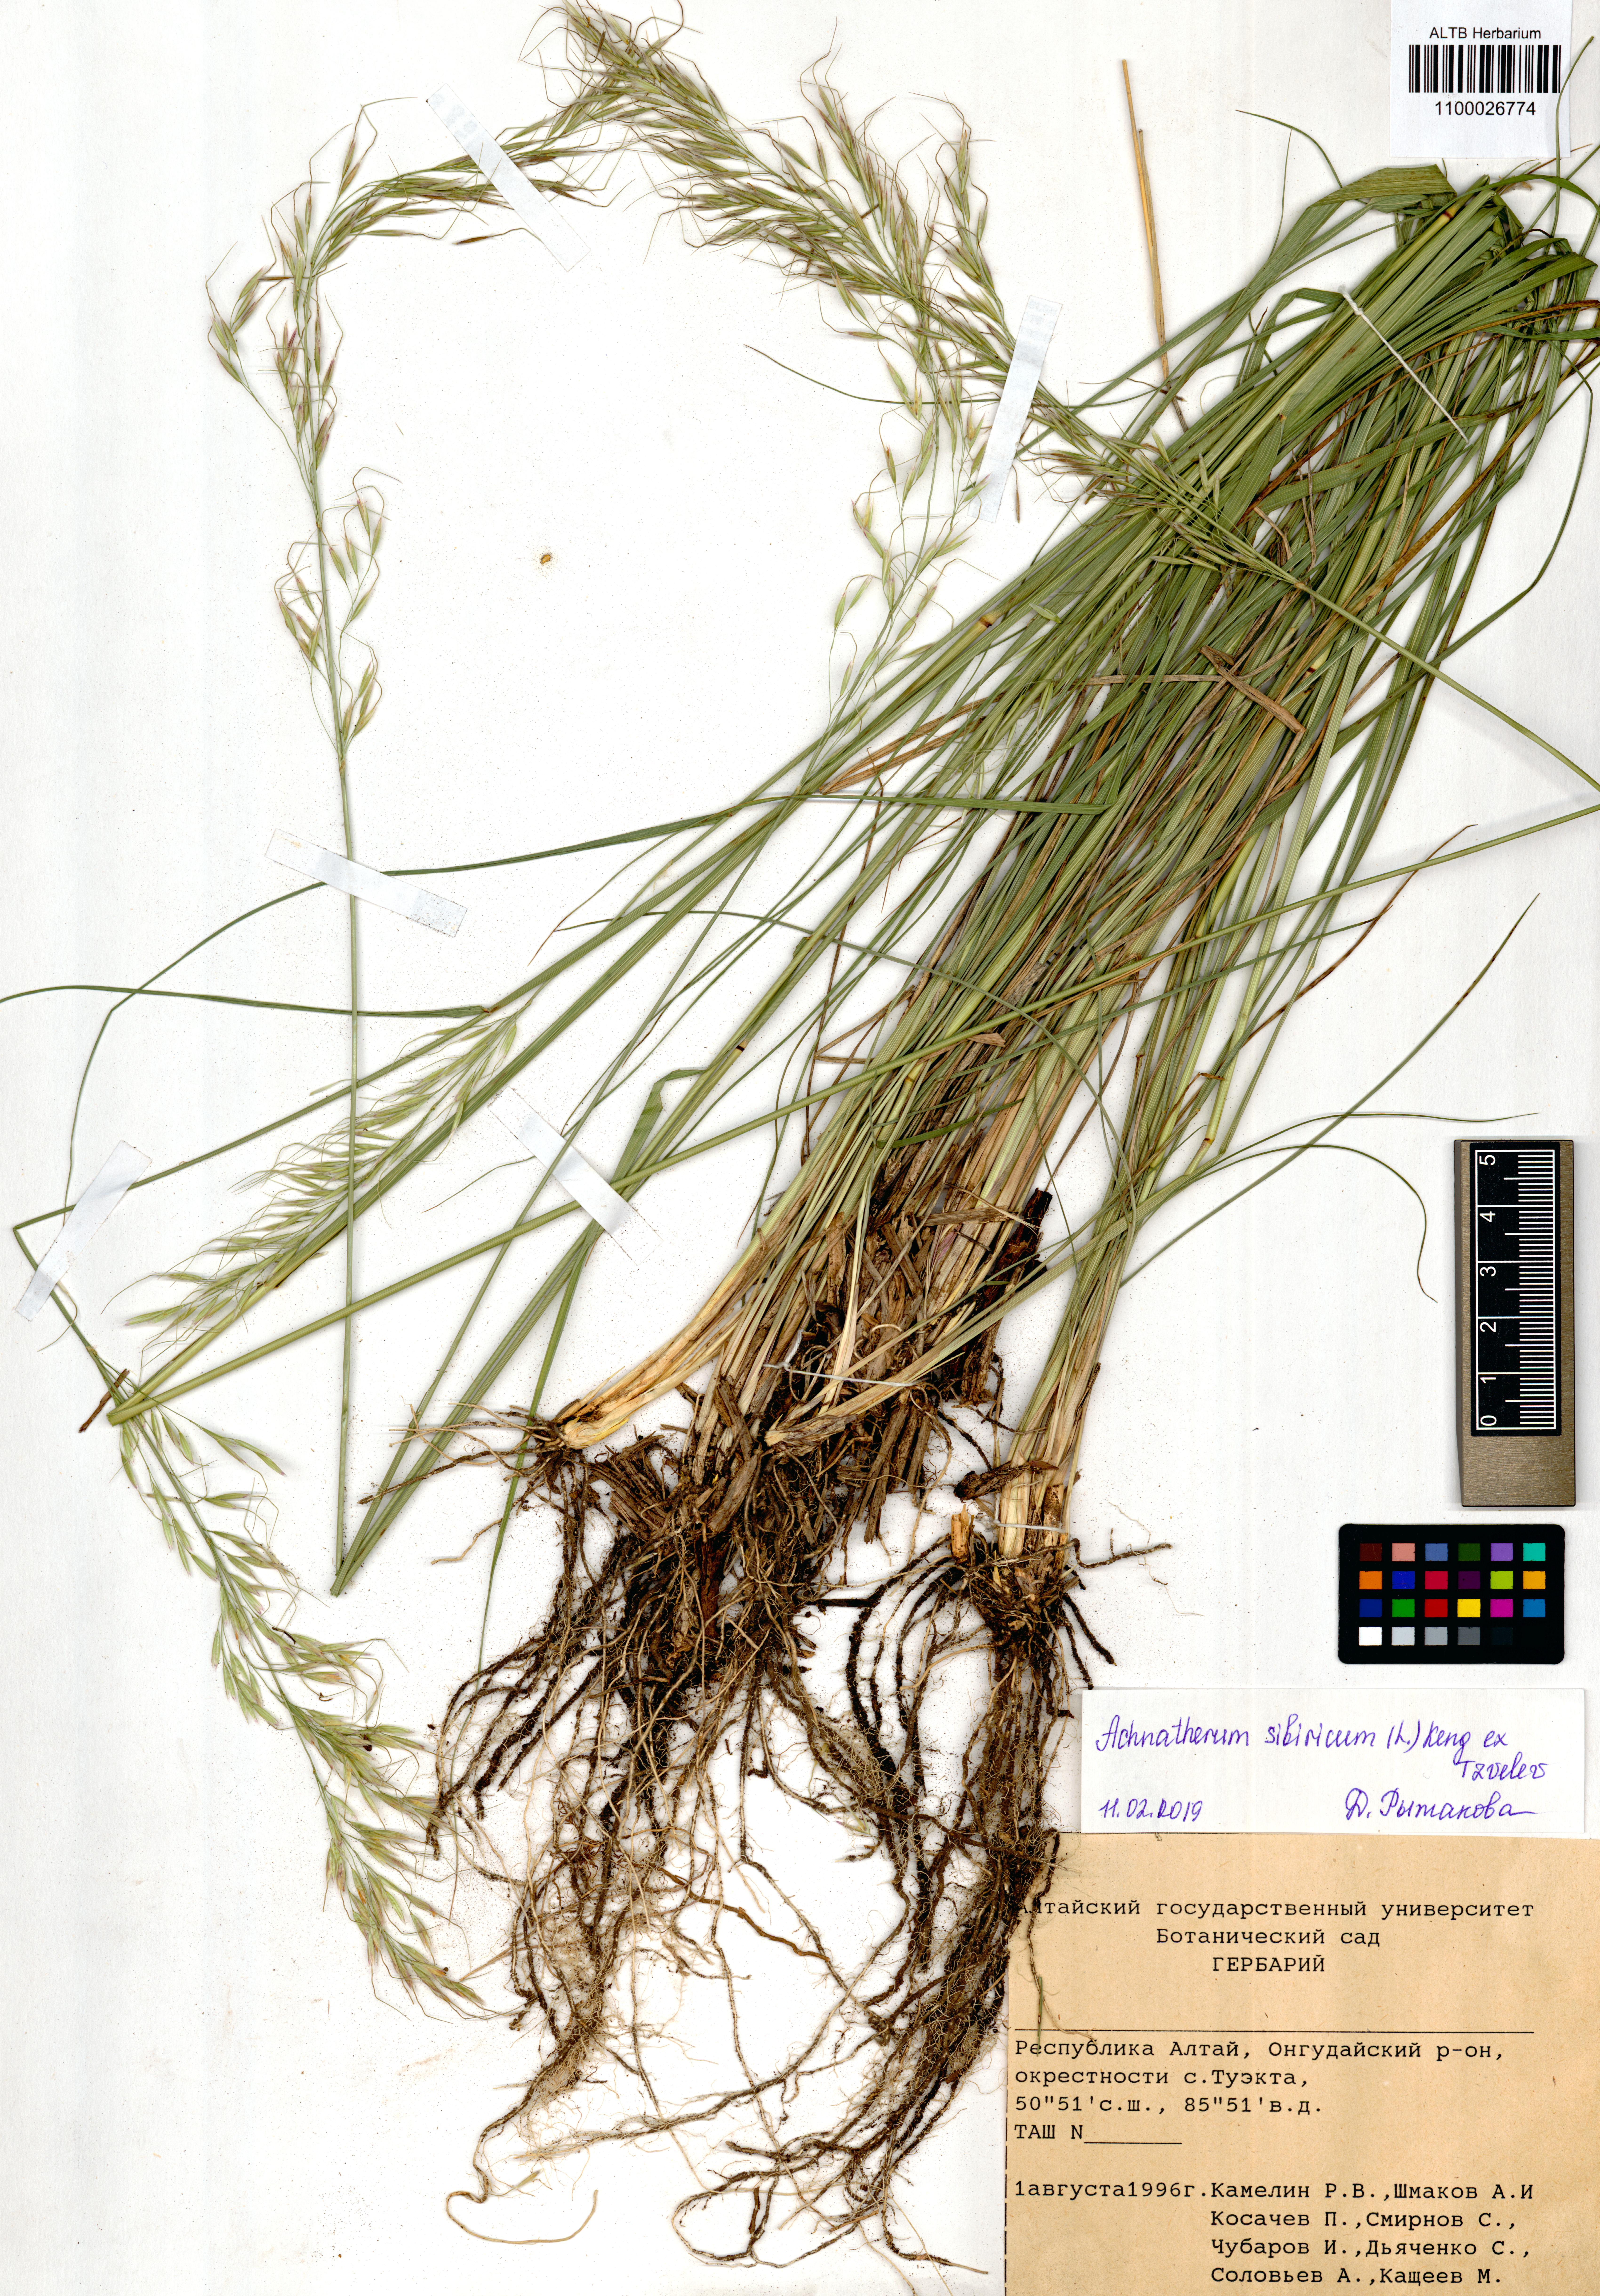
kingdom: Plantae
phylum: Tracheophyta
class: Liliopsida
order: Poales
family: Poaceae
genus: Achnatherum
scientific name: Achnatherum sibiricum
